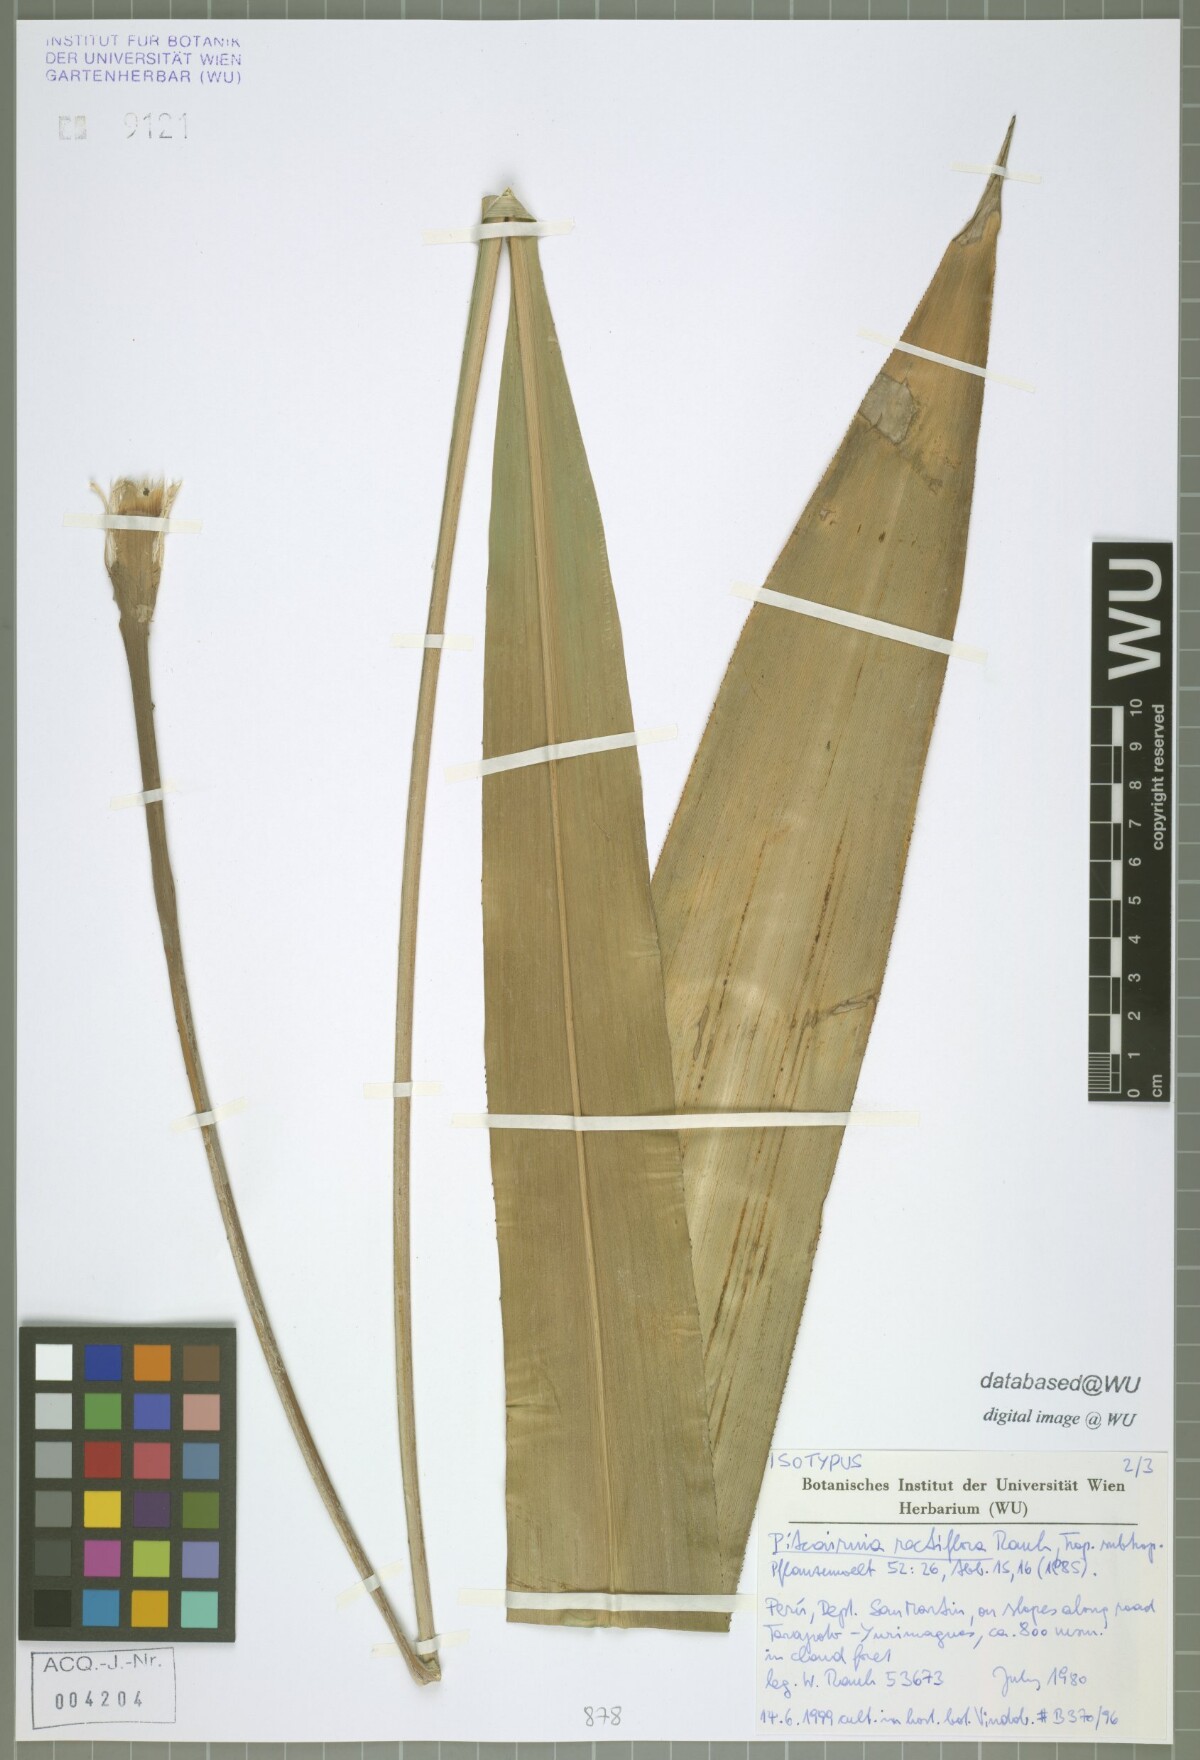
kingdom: Plantae
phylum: Tracheophyta
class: Liliopsida
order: Poales
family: Bromeliaceae
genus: Pitcairnia
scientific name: Pitcairnia rectiflora
